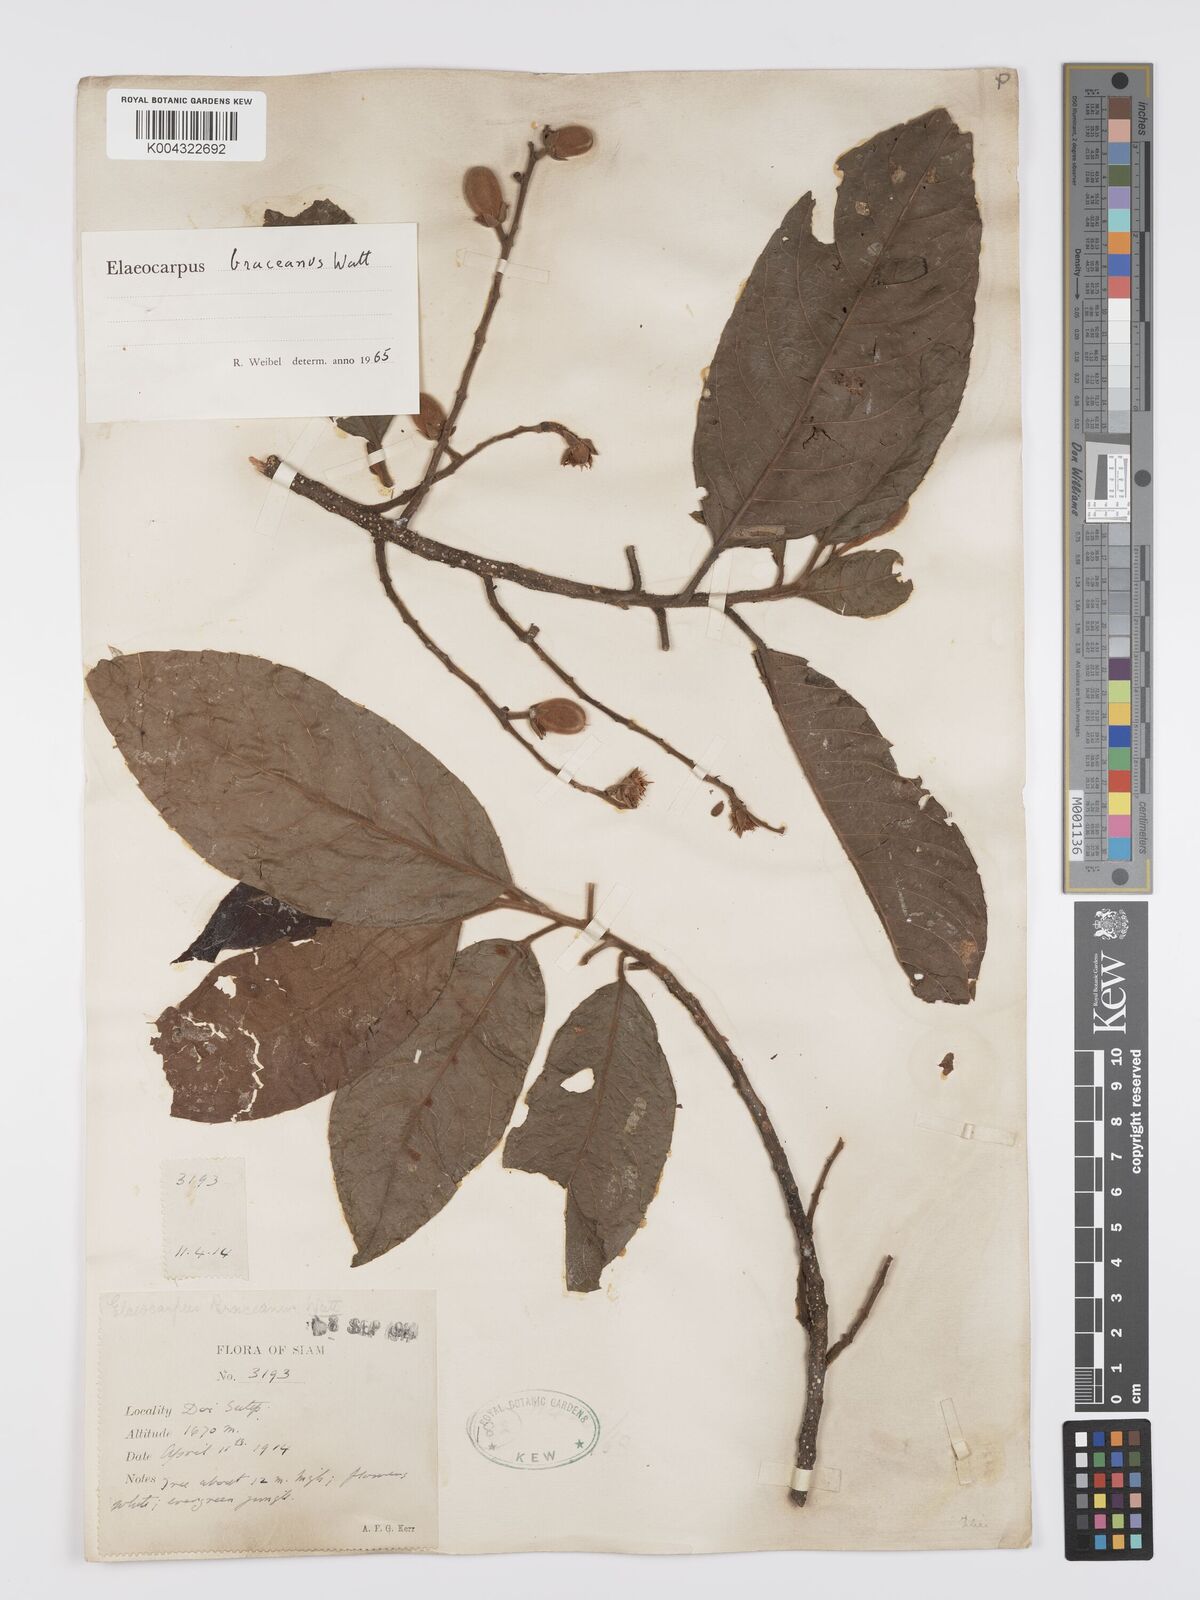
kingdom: Plantae
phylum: Tracheophyta
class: Magnoliopsida
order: Oxalidales
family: Elaeocarpaceae
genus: Elaeocarpus
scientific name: Elaeocarpus braceanus
